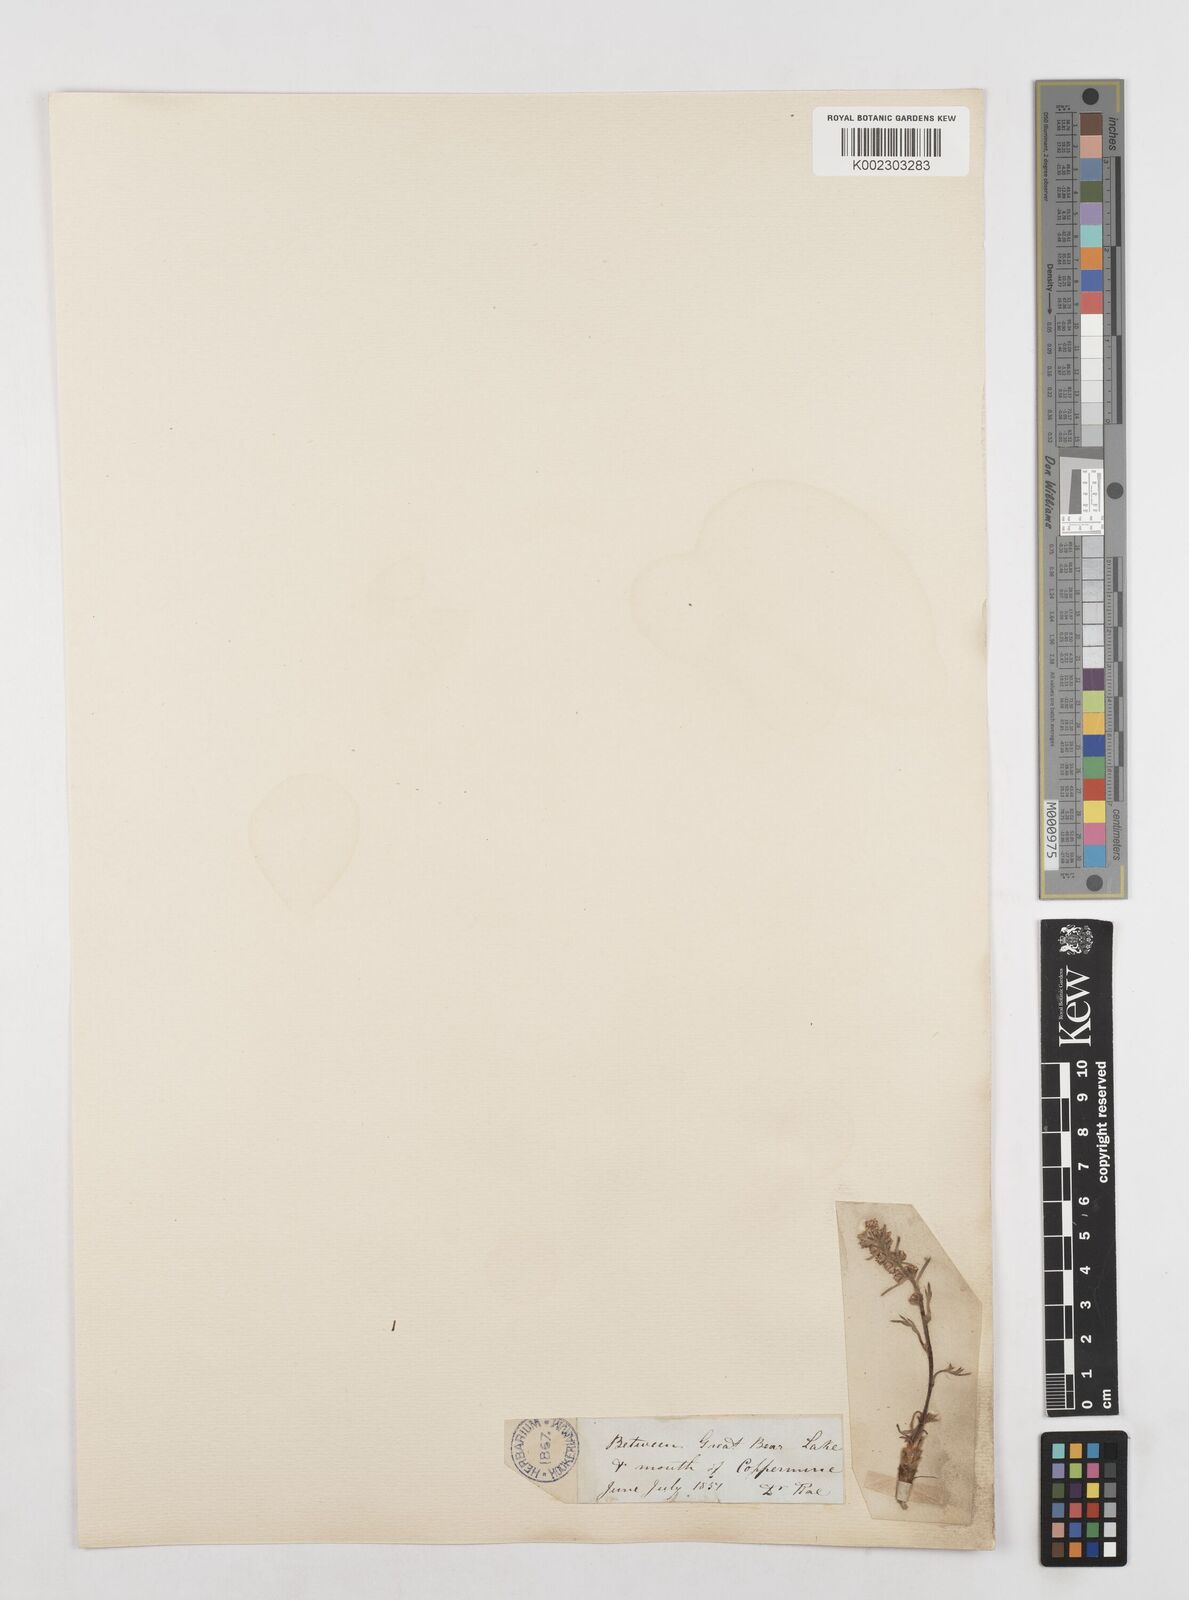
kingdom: Plantae
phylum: Tracheophyta
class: Magnoliopsida
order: Asterales
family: Asteraceae
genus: Artemisia
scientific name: Artemisia borealis
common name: Boreal sage
